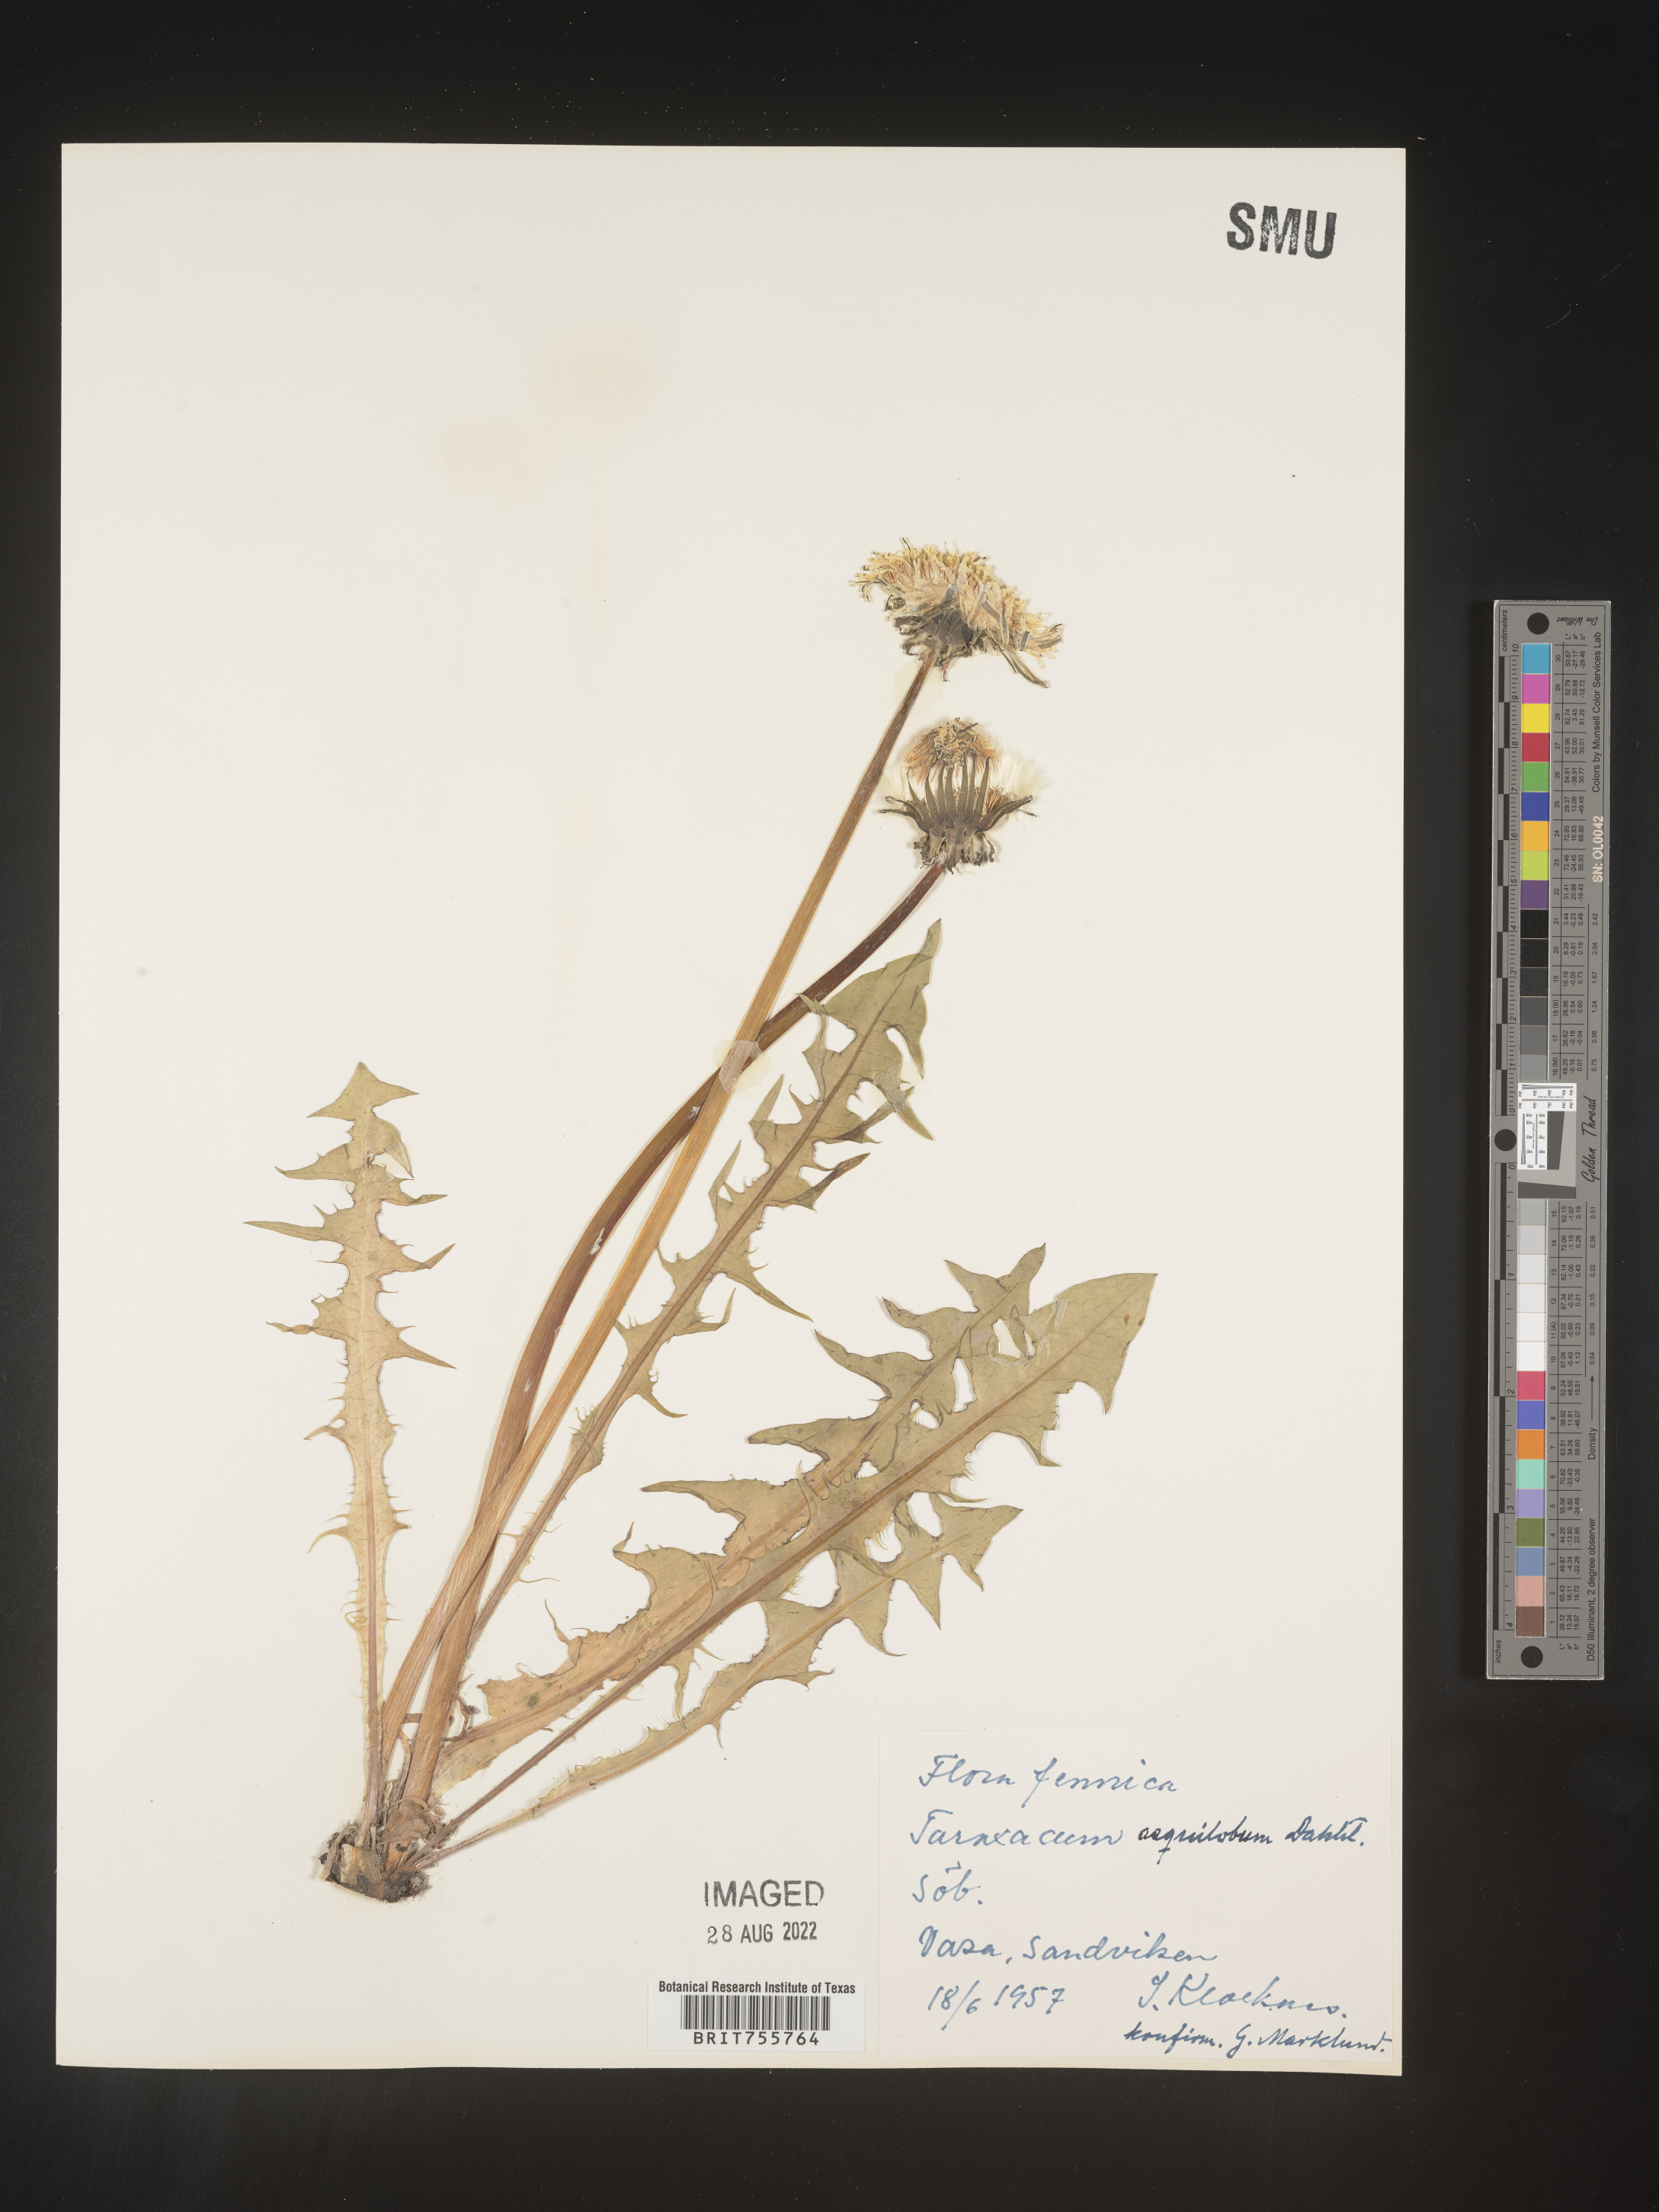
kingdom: Plantae
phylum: Tracheophyta
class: Magnoliopsida
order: Asterales
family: Asteraceae
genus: Taraxacum
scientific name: Taraxacum
